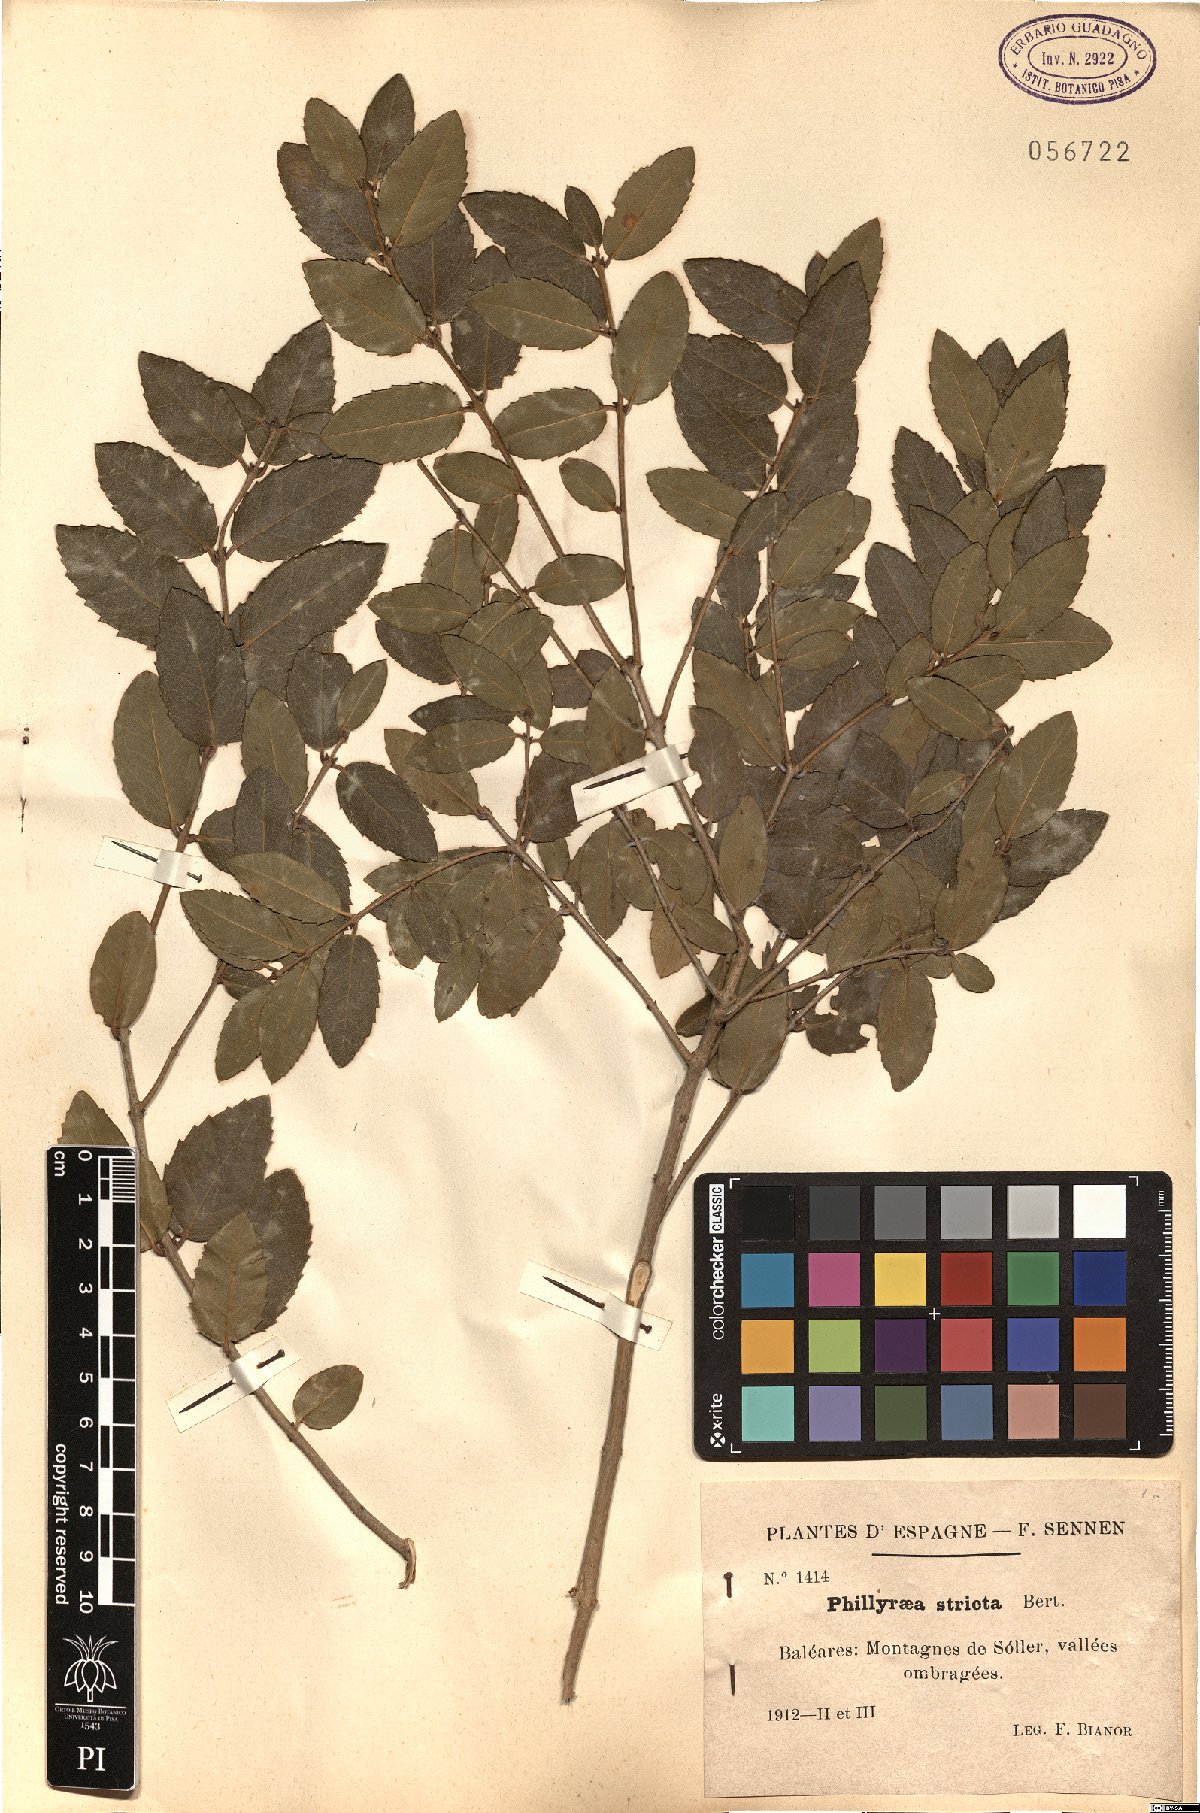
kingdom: Plantae
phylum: Tracheophyta
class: Magnoliopsida
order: Lamiales
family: Oleaceae
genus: Phillyrea
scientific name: Phillyrea latifolia
